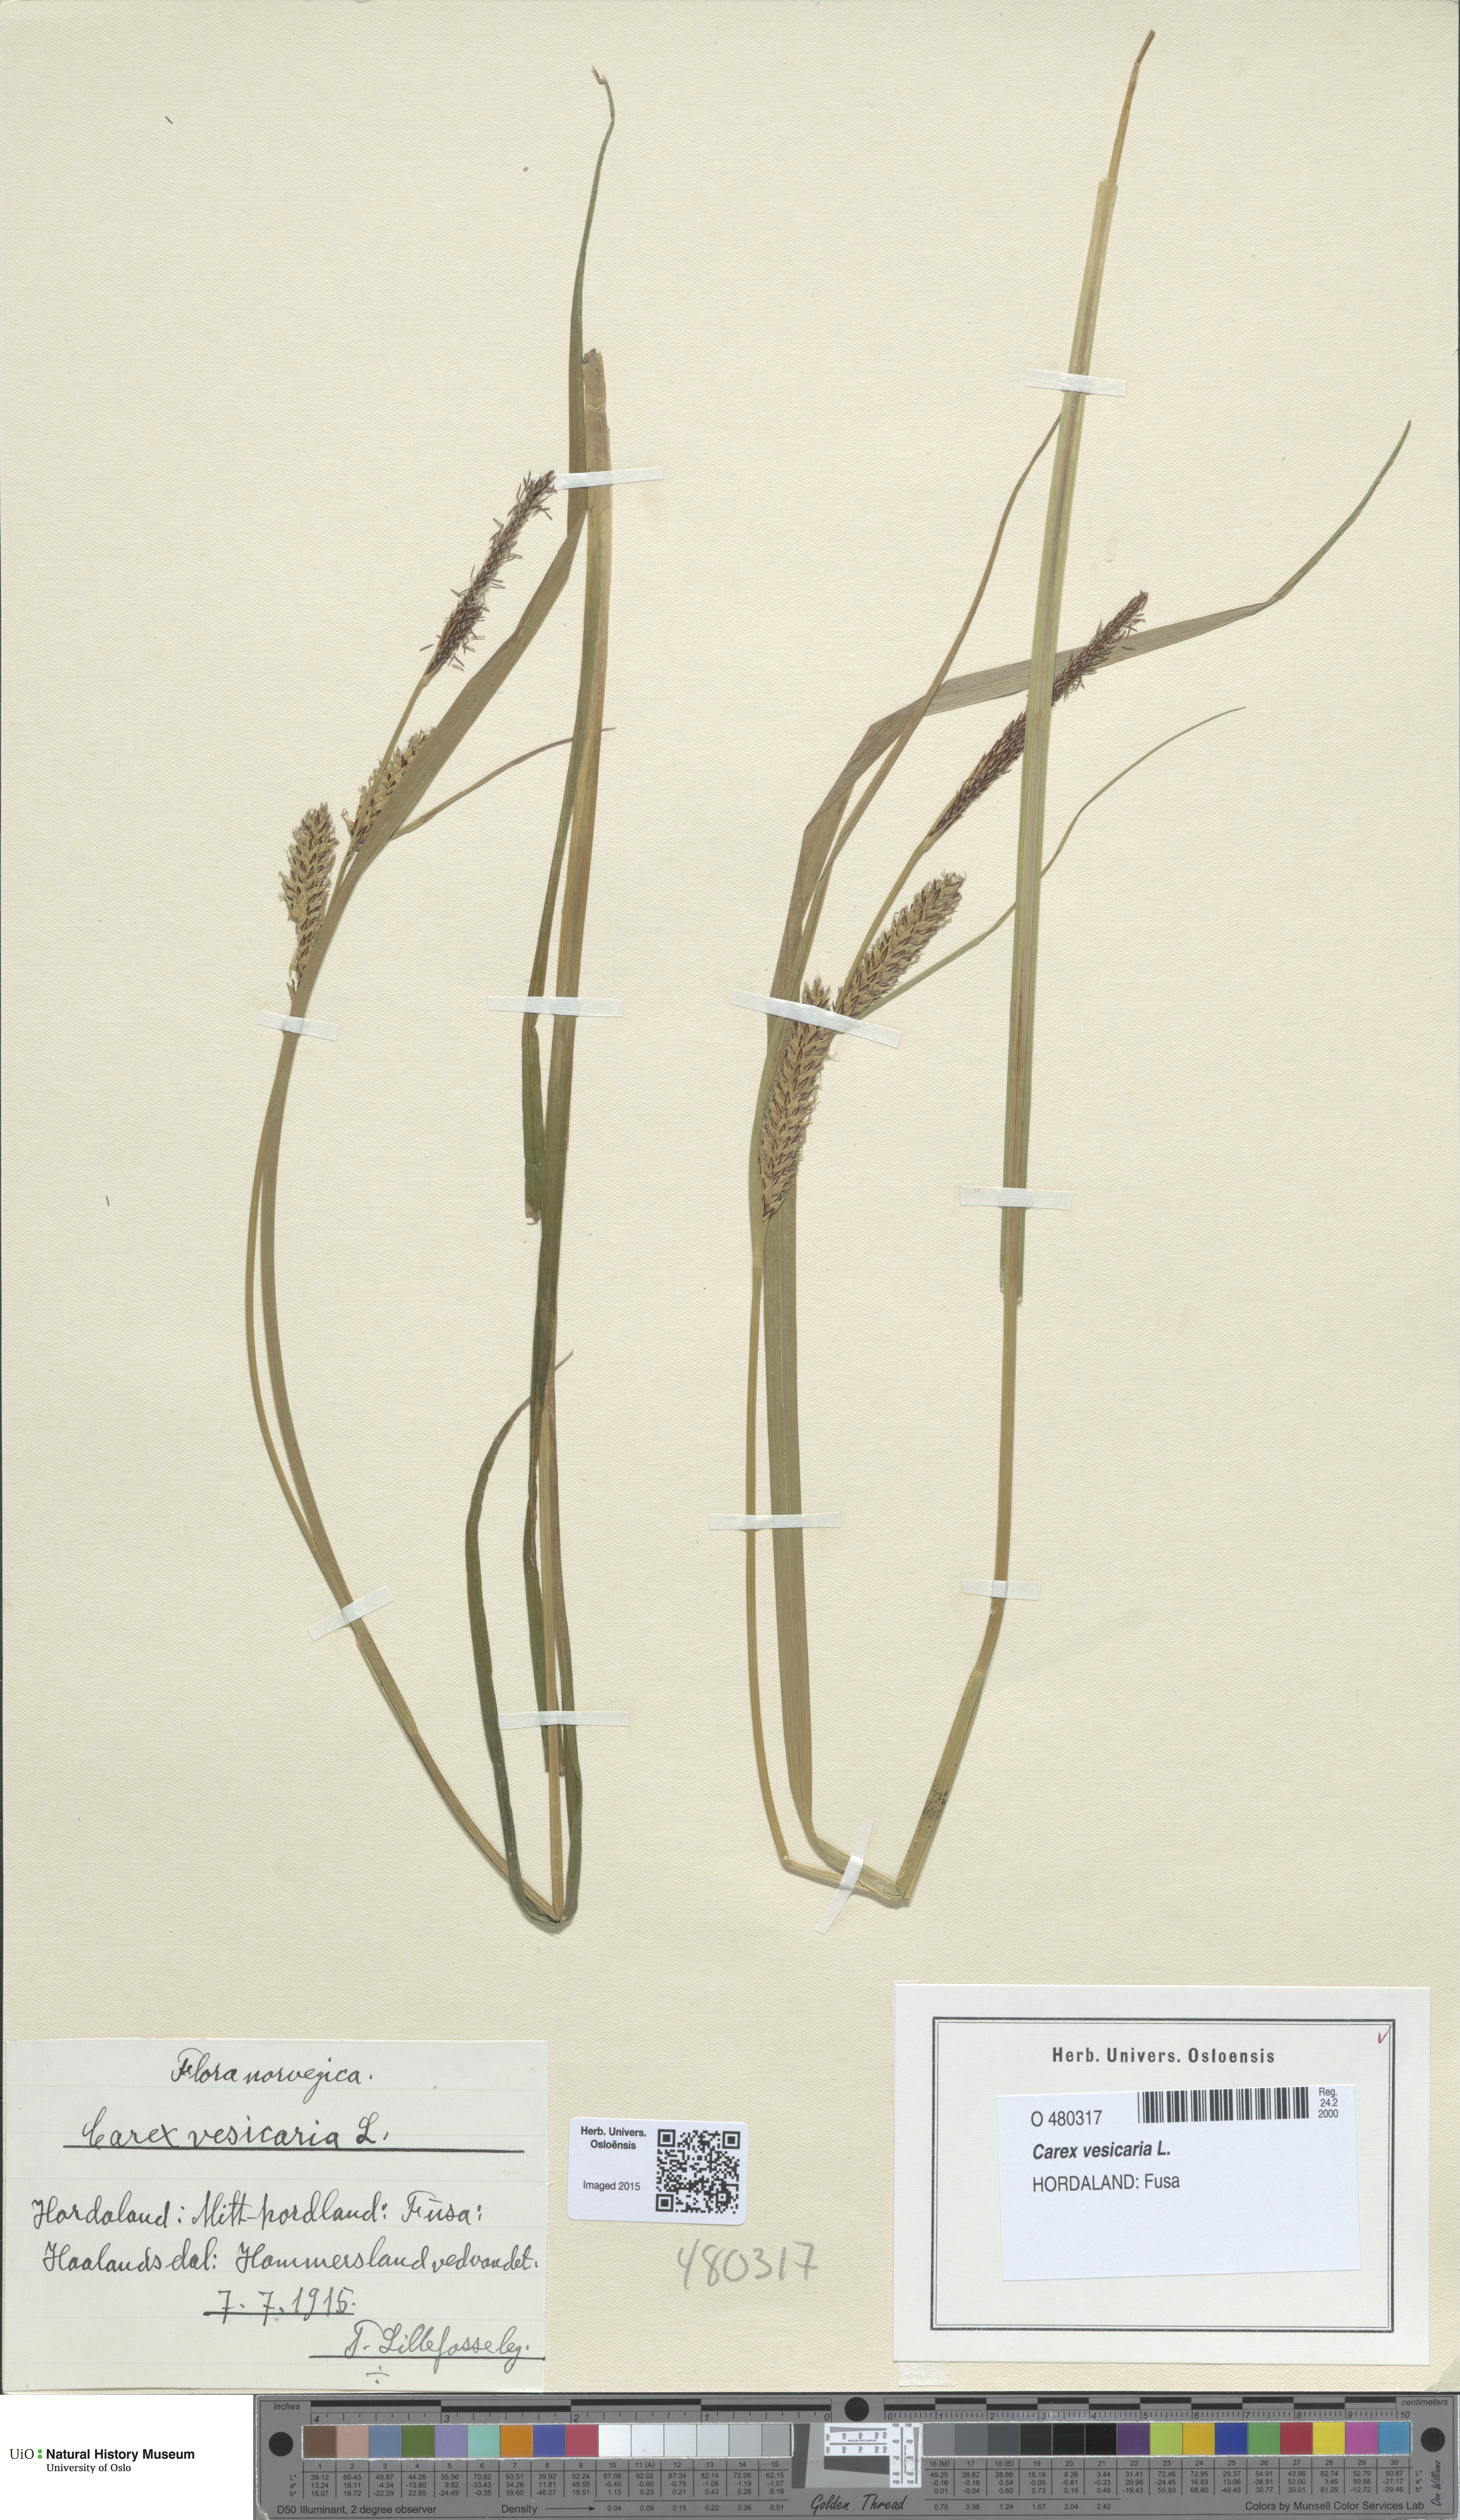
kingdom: Plantae
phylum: Tracheophyta
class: Liliopsida
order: Poales
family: Cyperaceae
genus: Carex
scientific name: Carex vesicaria
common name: Bladder-sedge
